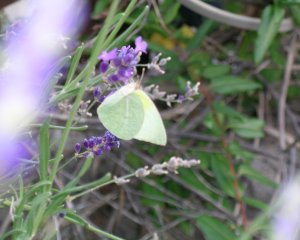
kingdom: Animalia
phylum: Arthropoda
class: Insecta
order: Lepidoptera
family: Pieridae
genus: Kricogonia
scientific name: Kricogonia lyside
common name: Lyside Sulphur
